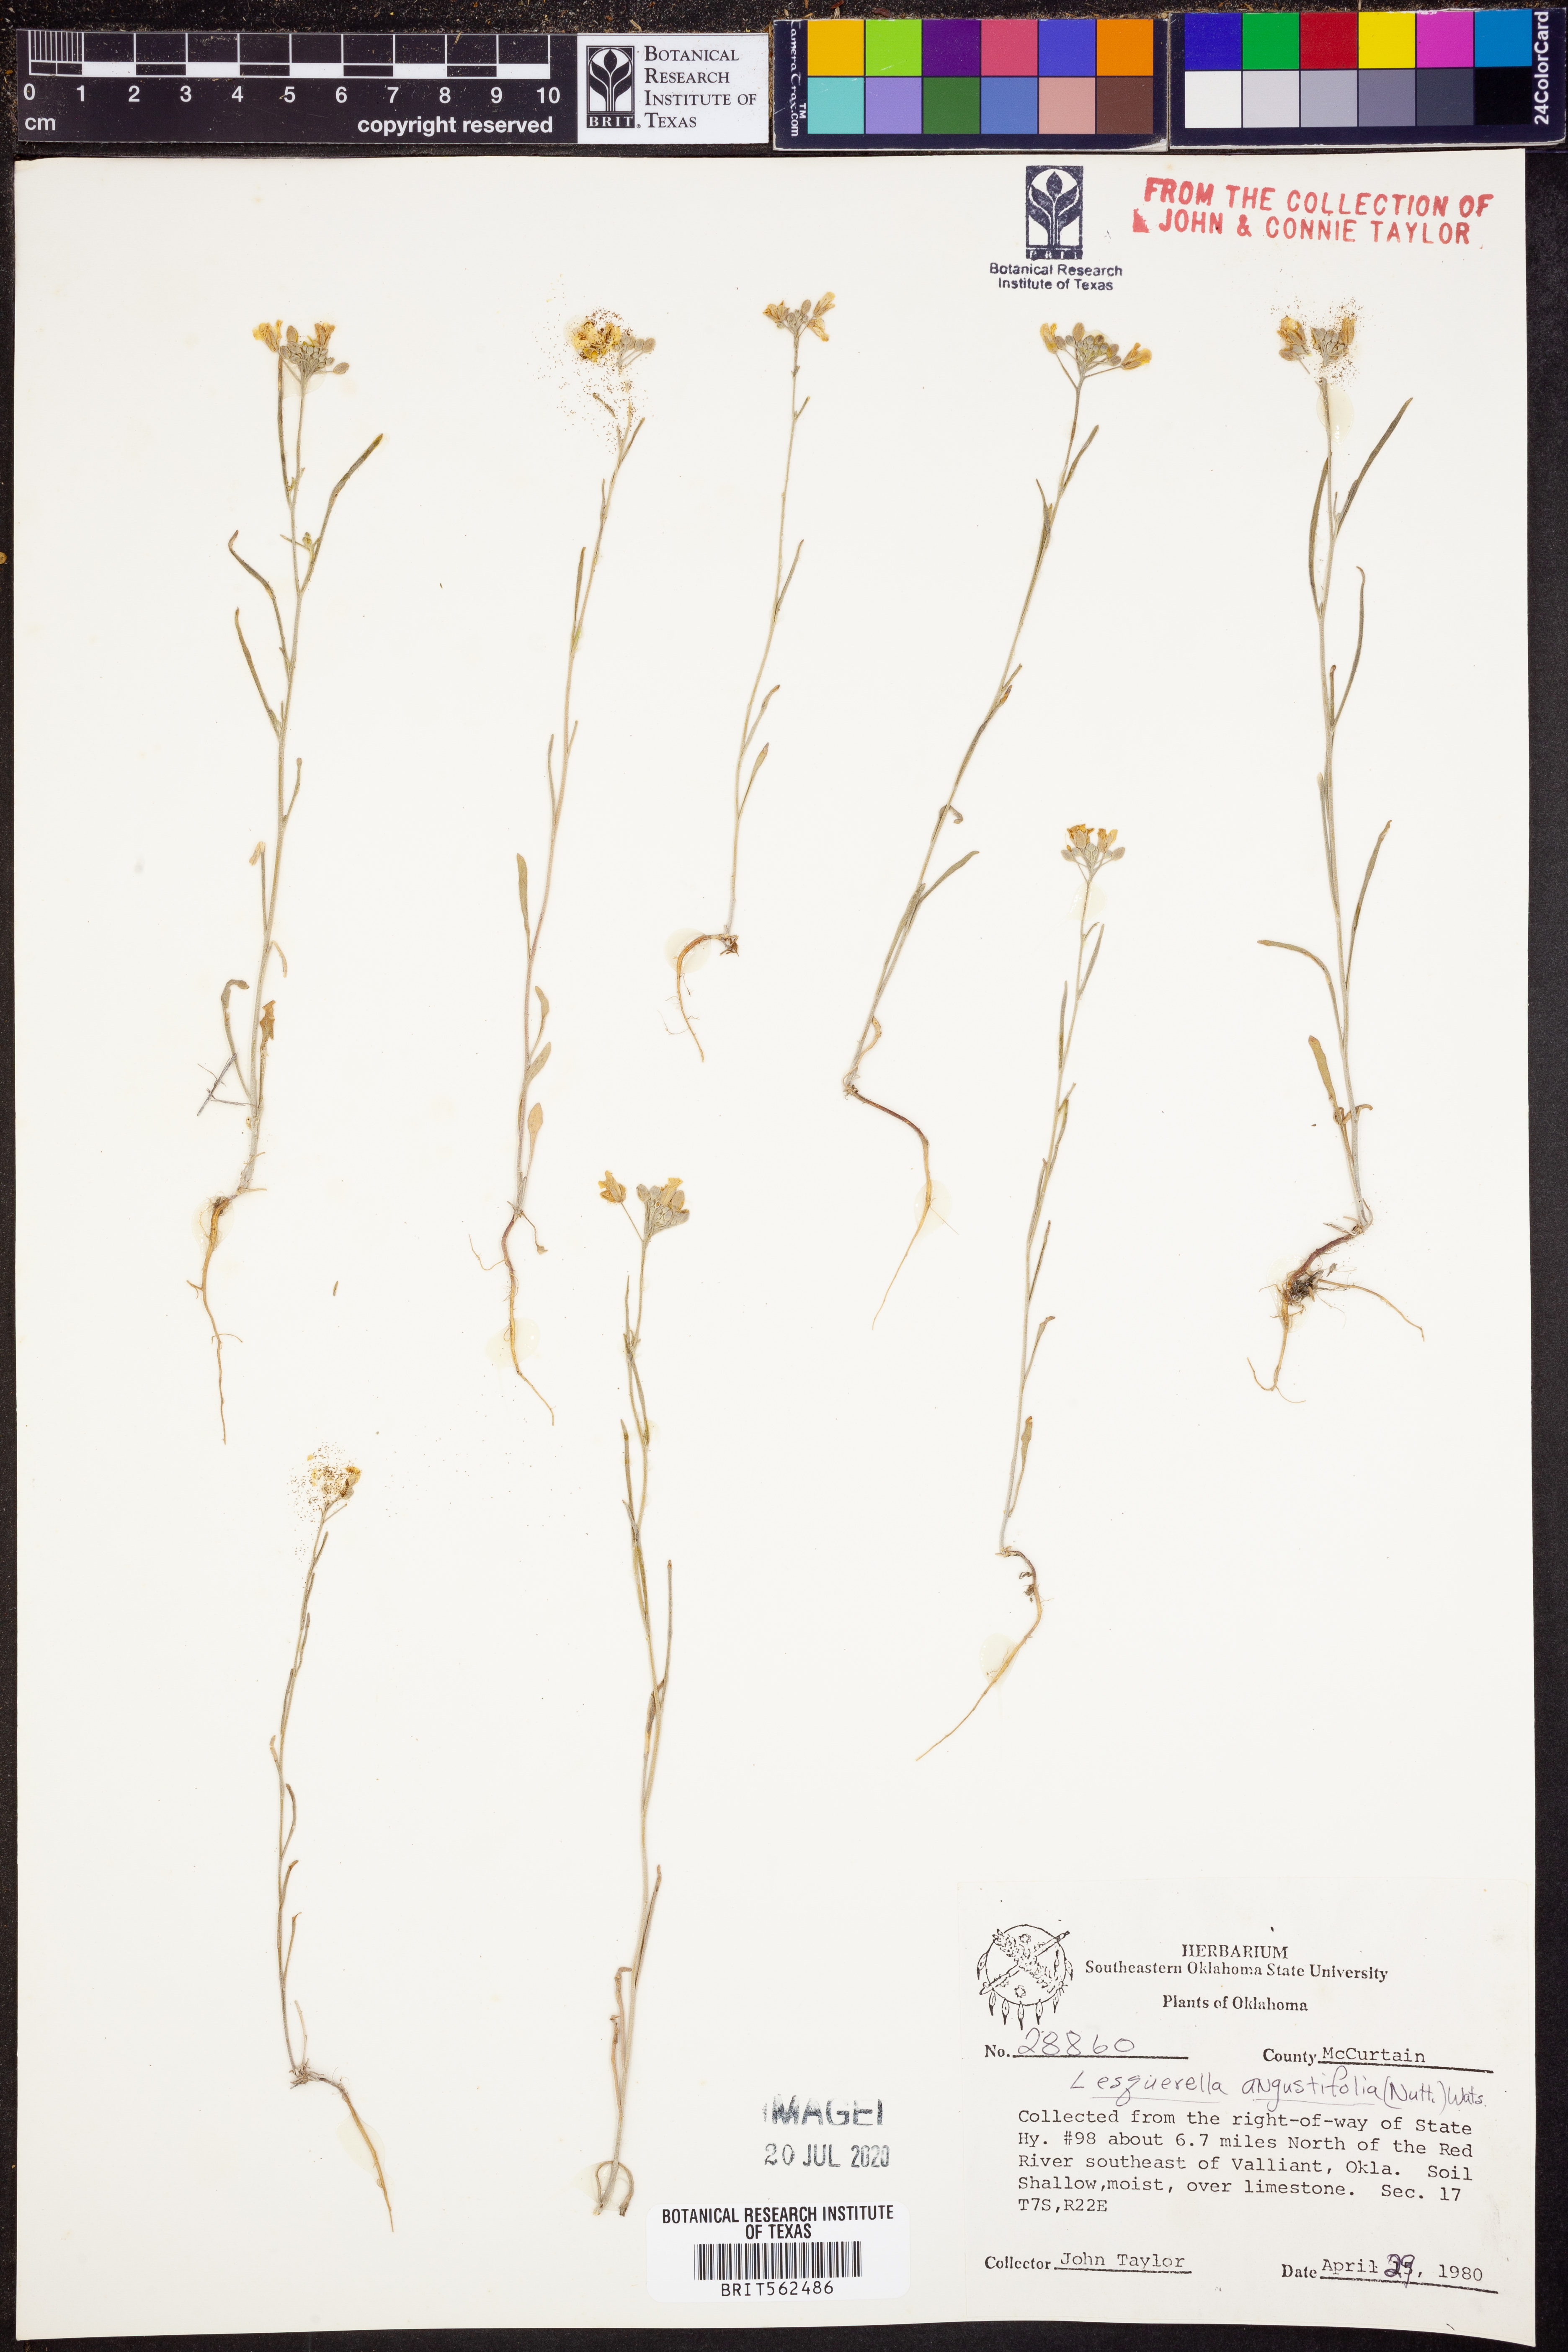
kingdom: Plantae
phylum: Tracheophyta
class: Magnoliopsida
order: Brassicales
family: Brassicaceae
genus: Physaria
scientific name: Physaria angustifolia
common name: Threadleaf bladderpod
